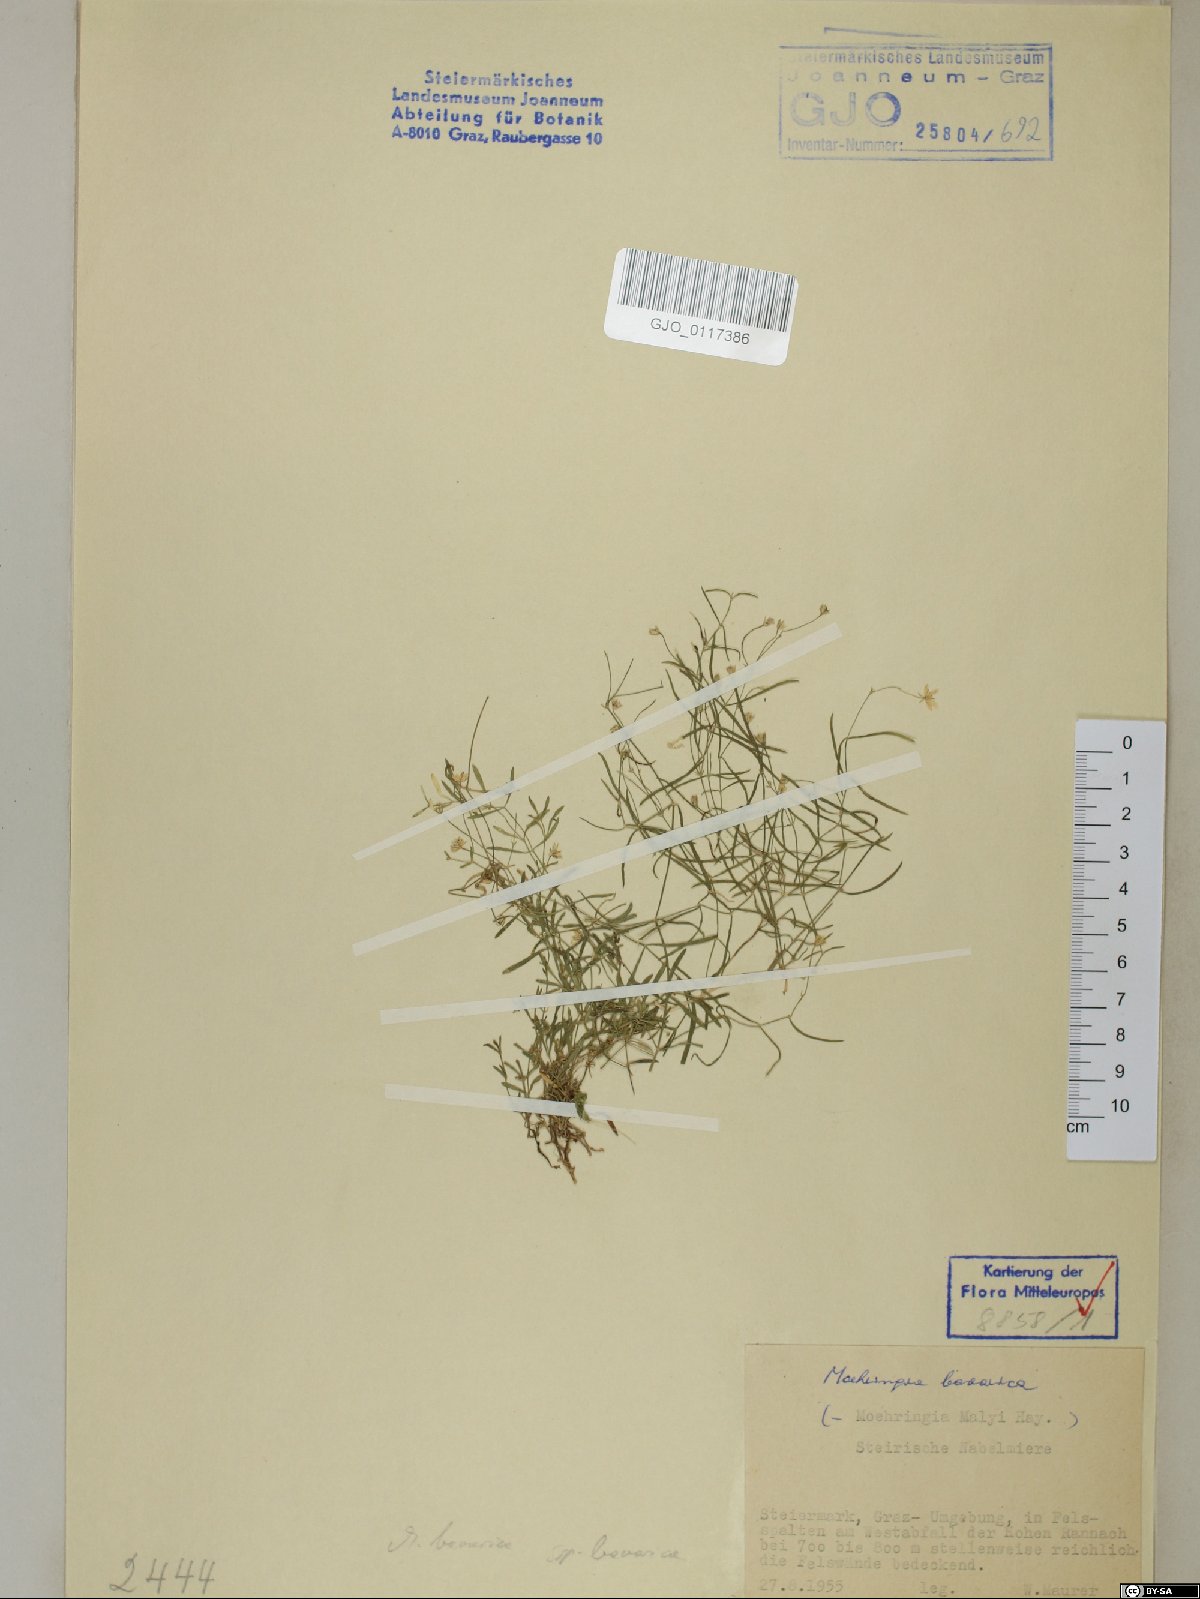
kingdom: Plantae
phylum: Tracheophyta
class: Magnoliopsida
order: Caryophyllales
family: Caryophyllaceae
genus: Moehringia
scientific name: Moehringia bavarica
